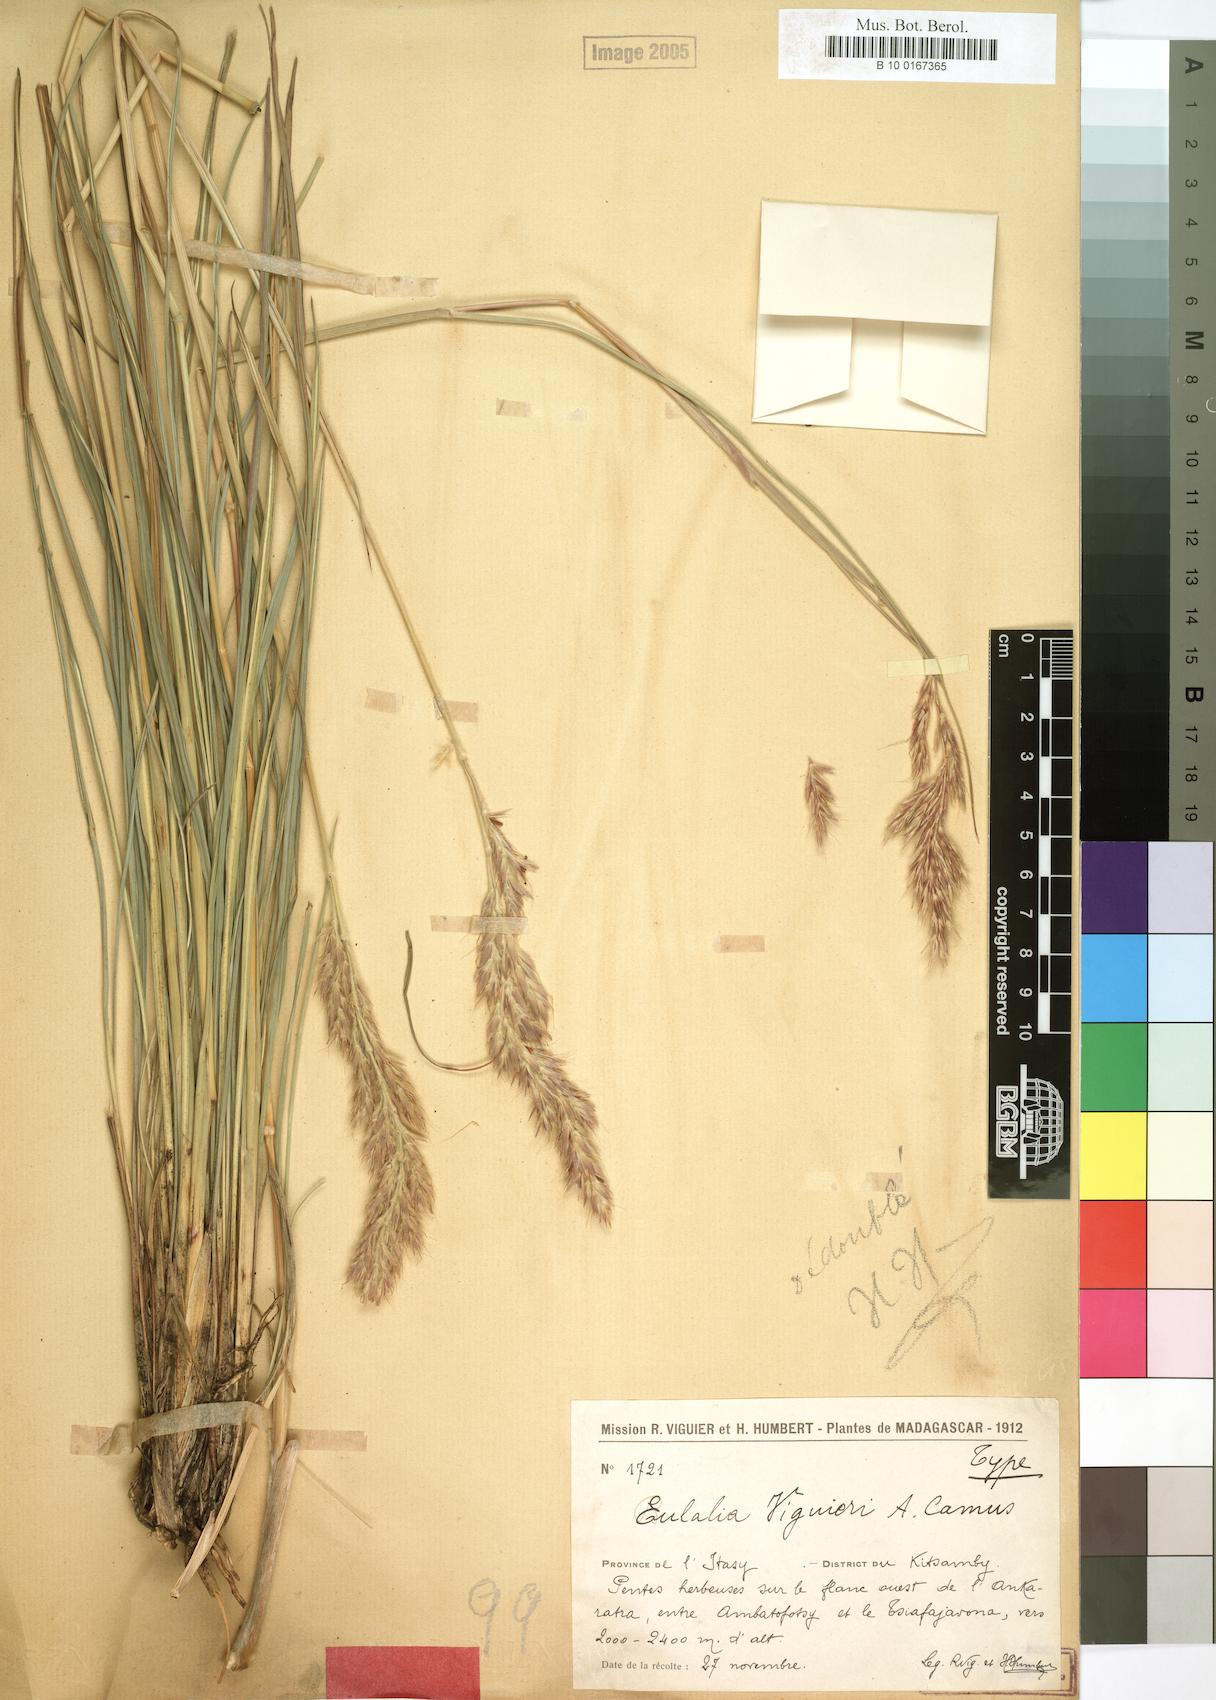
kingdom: Plantae
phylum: Tracheophyta
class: Liliopsida
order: Poales
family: Poaceae
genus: Eulalia
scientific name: Eulalia
